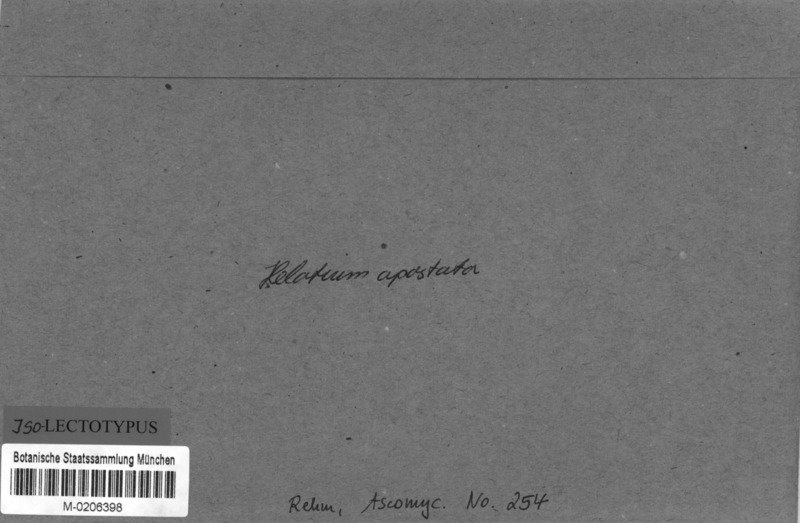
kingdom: Fungi
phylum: Ascomycota
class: Leotiomycetes
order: Helotiales
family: Helotiaceae
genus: Cyathicula
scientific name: Cyathicula culmicola
